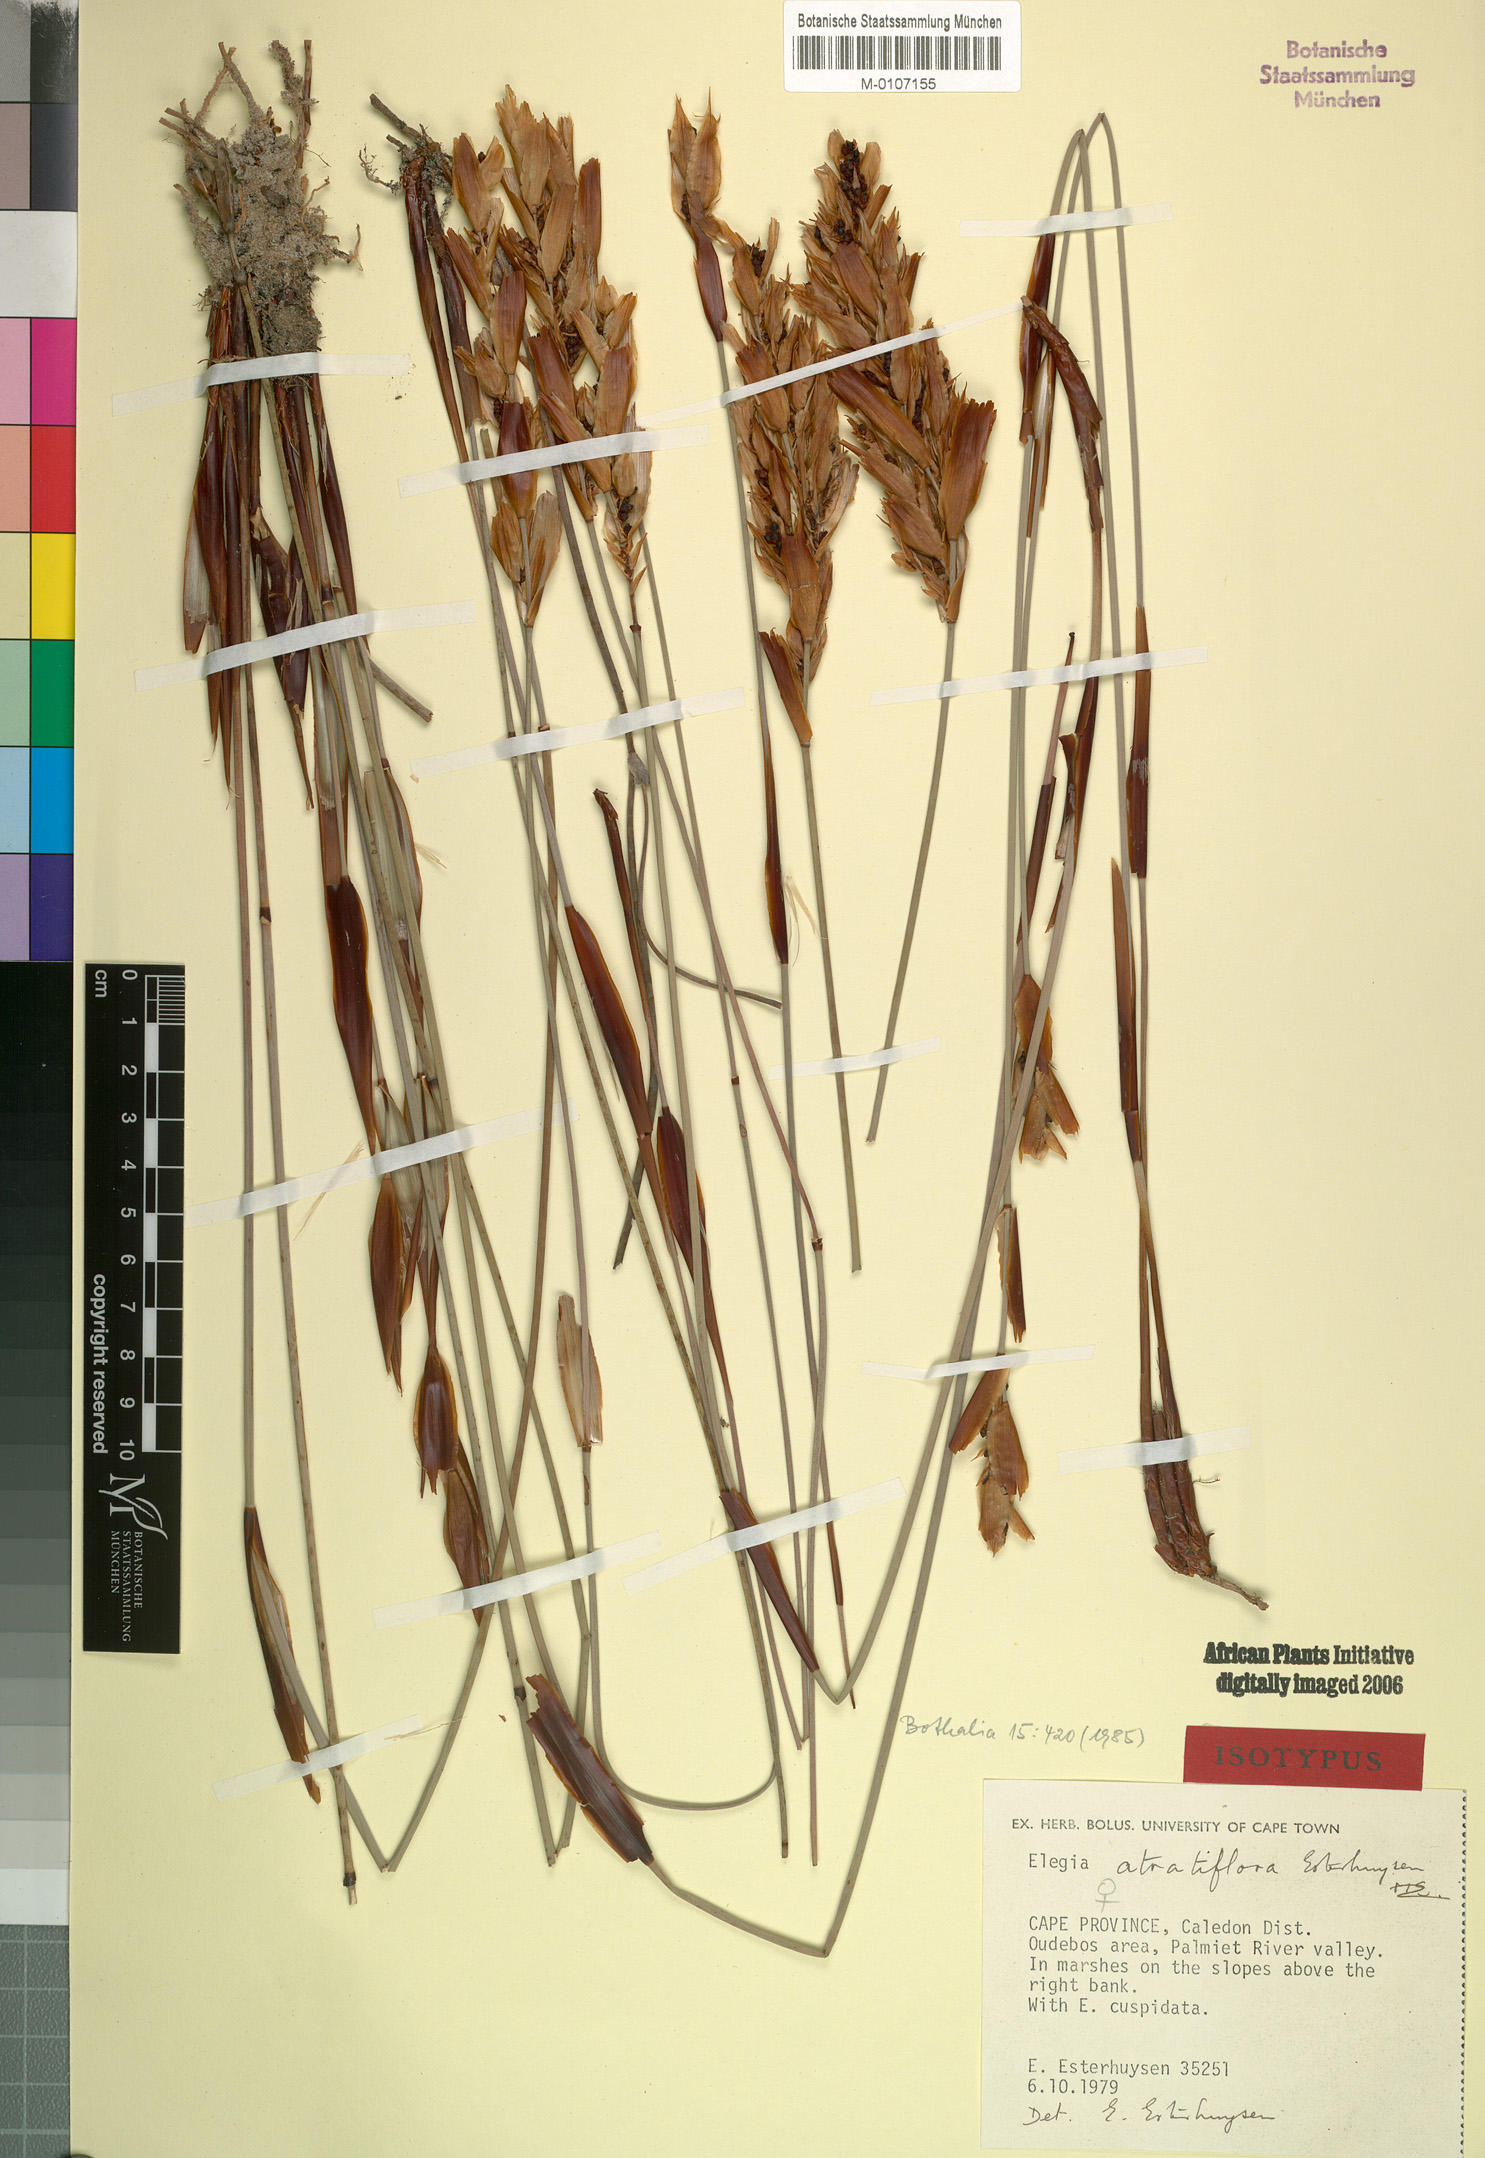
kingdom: Plantae
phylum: Tracheophyta
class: Liliopsida
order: Poales
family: Restionaceae
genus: Elegia
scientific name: Elegia atratiflora
